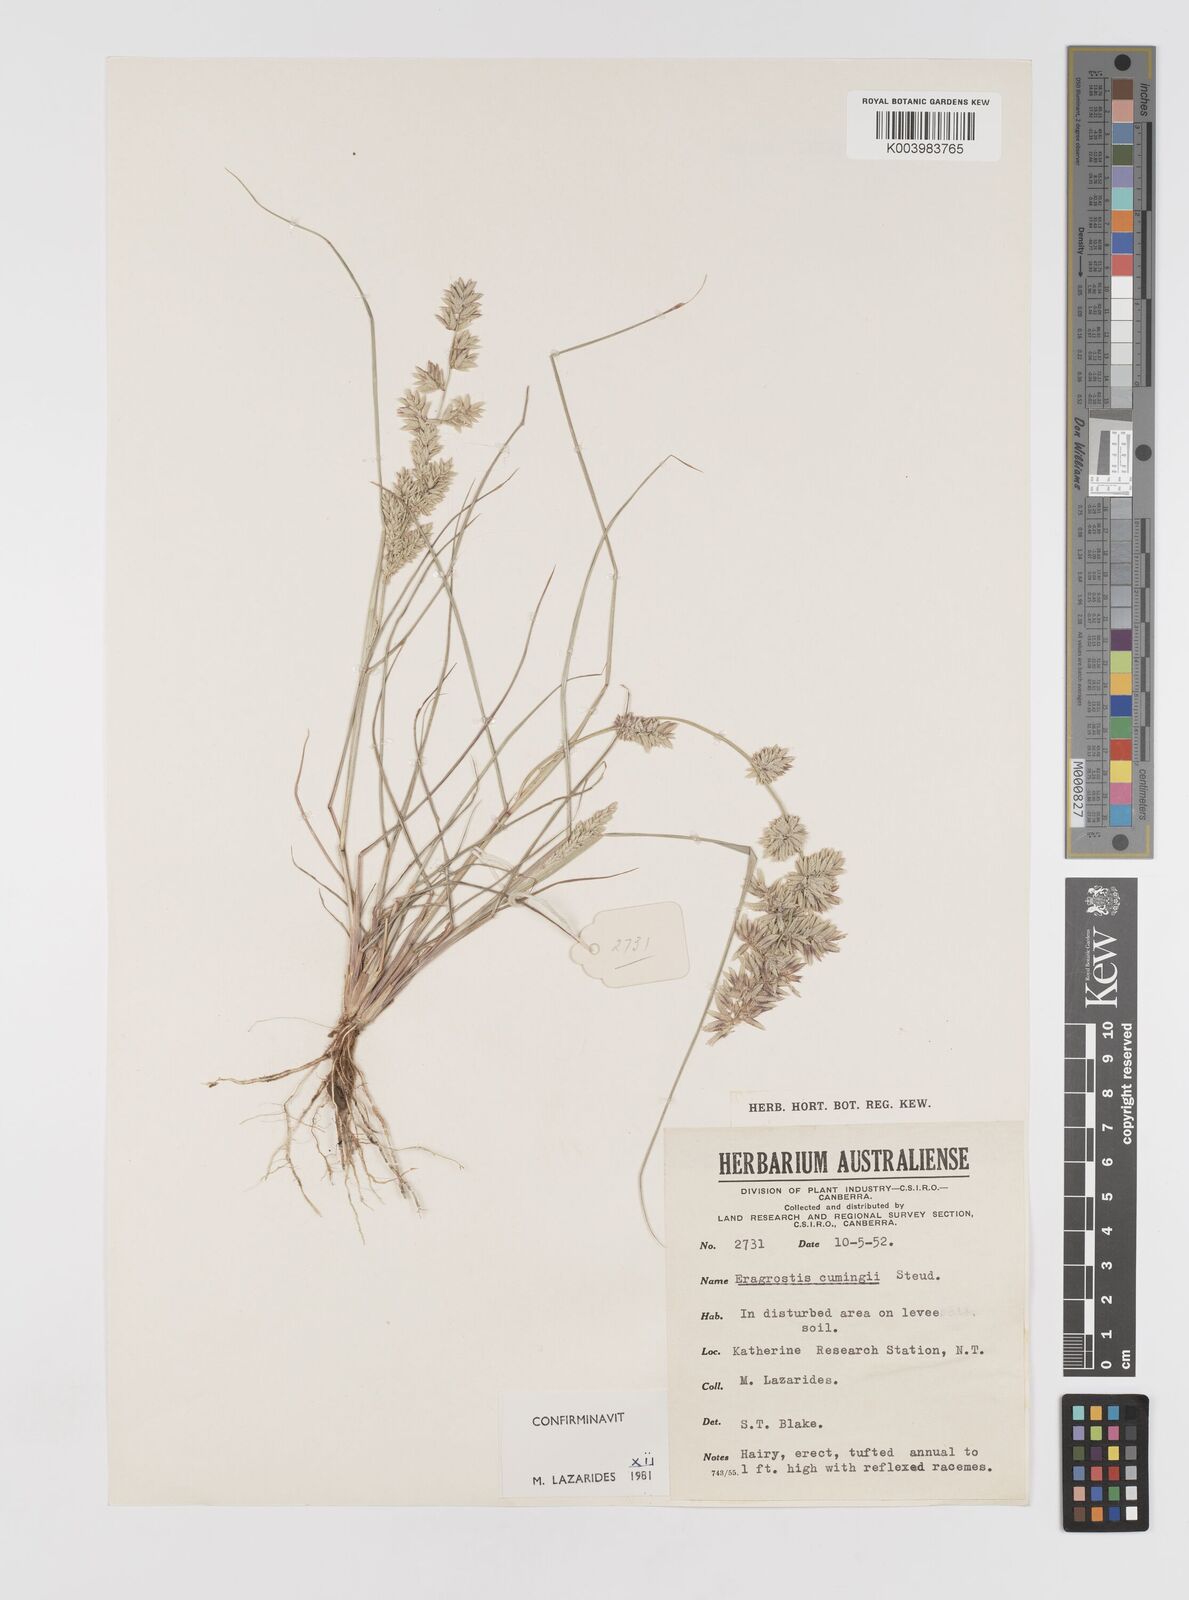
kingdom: Plantae
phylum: Tracheophyta
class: Liliopsida
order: Poales
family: Poaceae
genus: Eragrostis
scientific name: Eragrostis cumingii
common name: Cuming's lovegrass
